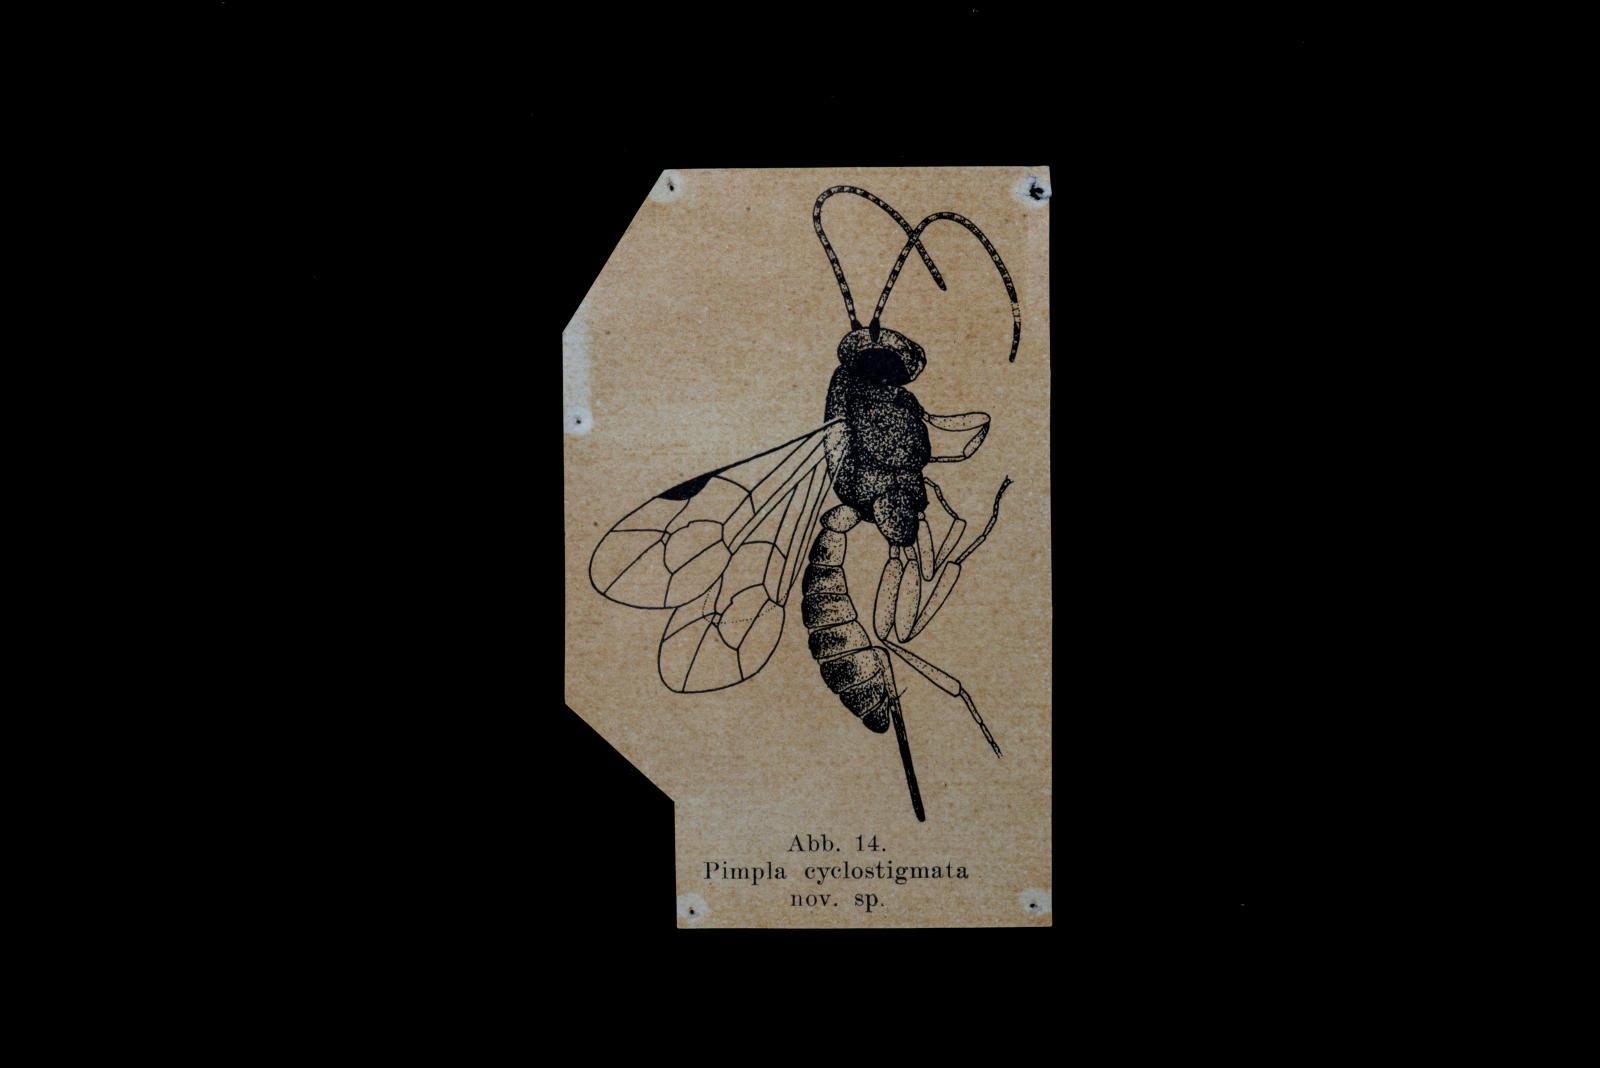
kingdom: Animalia
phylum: Arthropoda
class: Insecta
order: Hymenoptera
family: Ichneumonidae
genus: Pimpla
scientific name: Pimpla cyclostigmata
